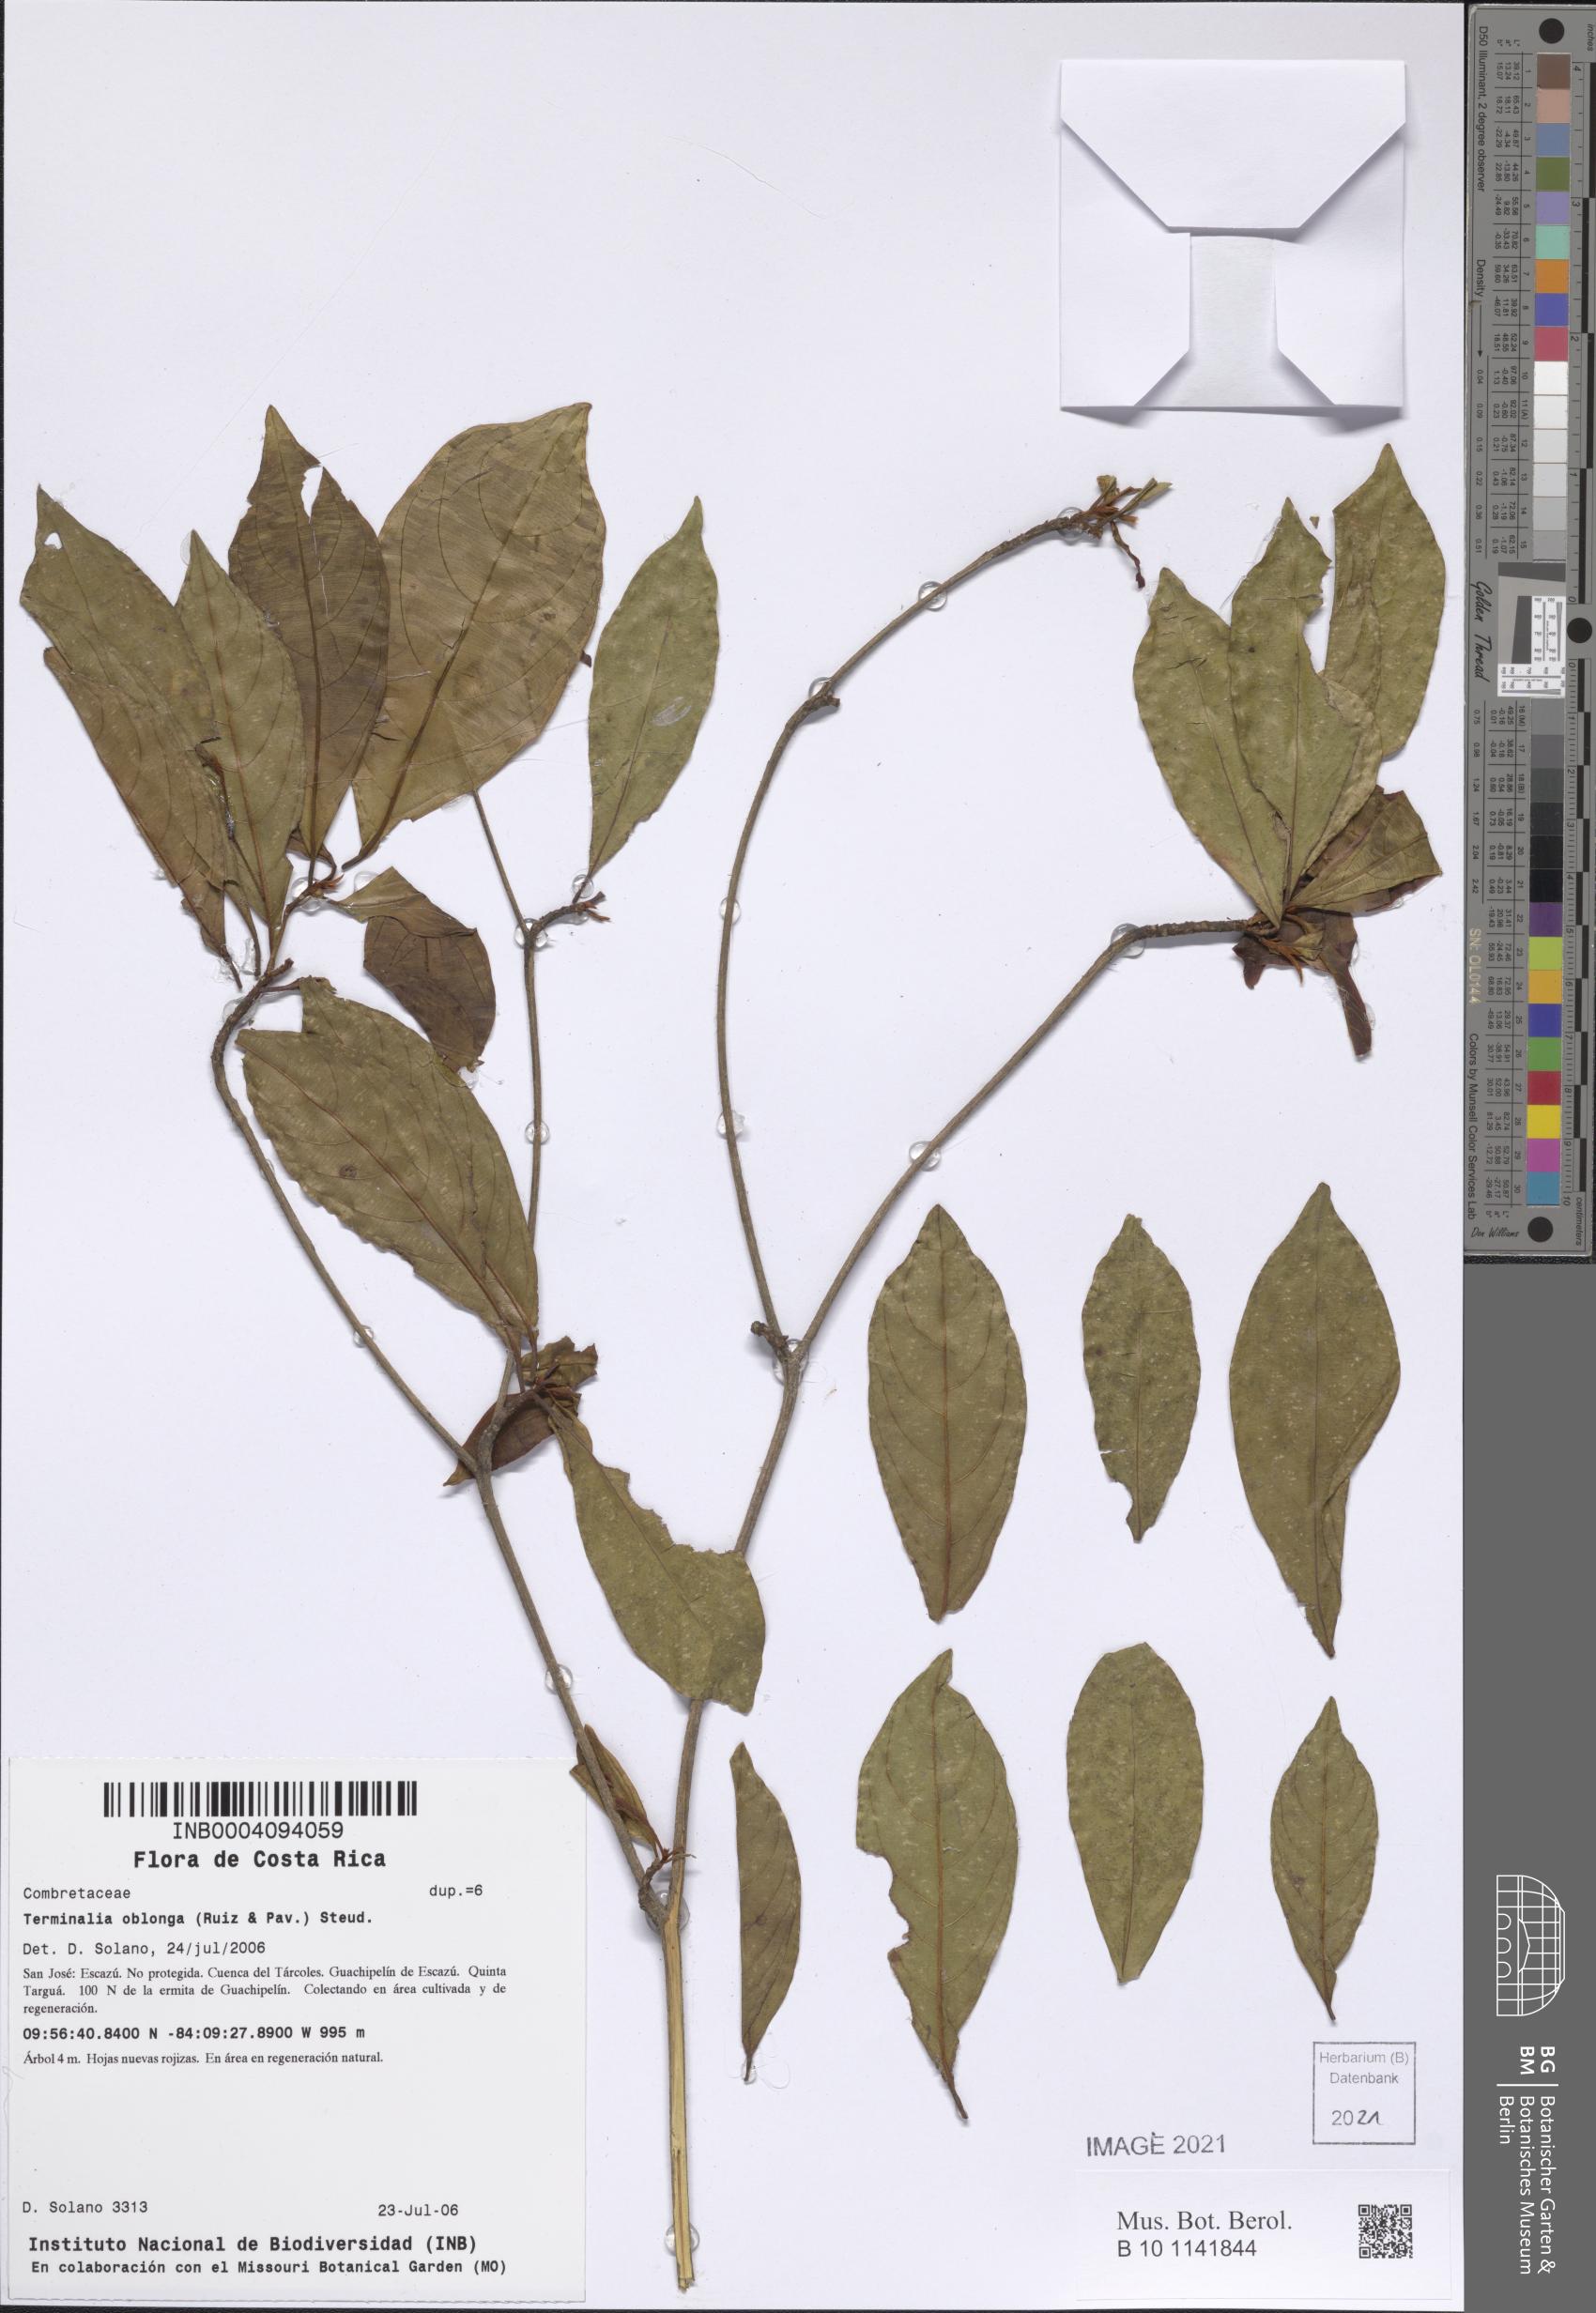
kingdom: Plantae
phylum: Tracheophyta
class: Magnoliopsida
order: Myrtales
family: Combretaceae
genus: Terminalia
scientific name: Terminalia oblonga
